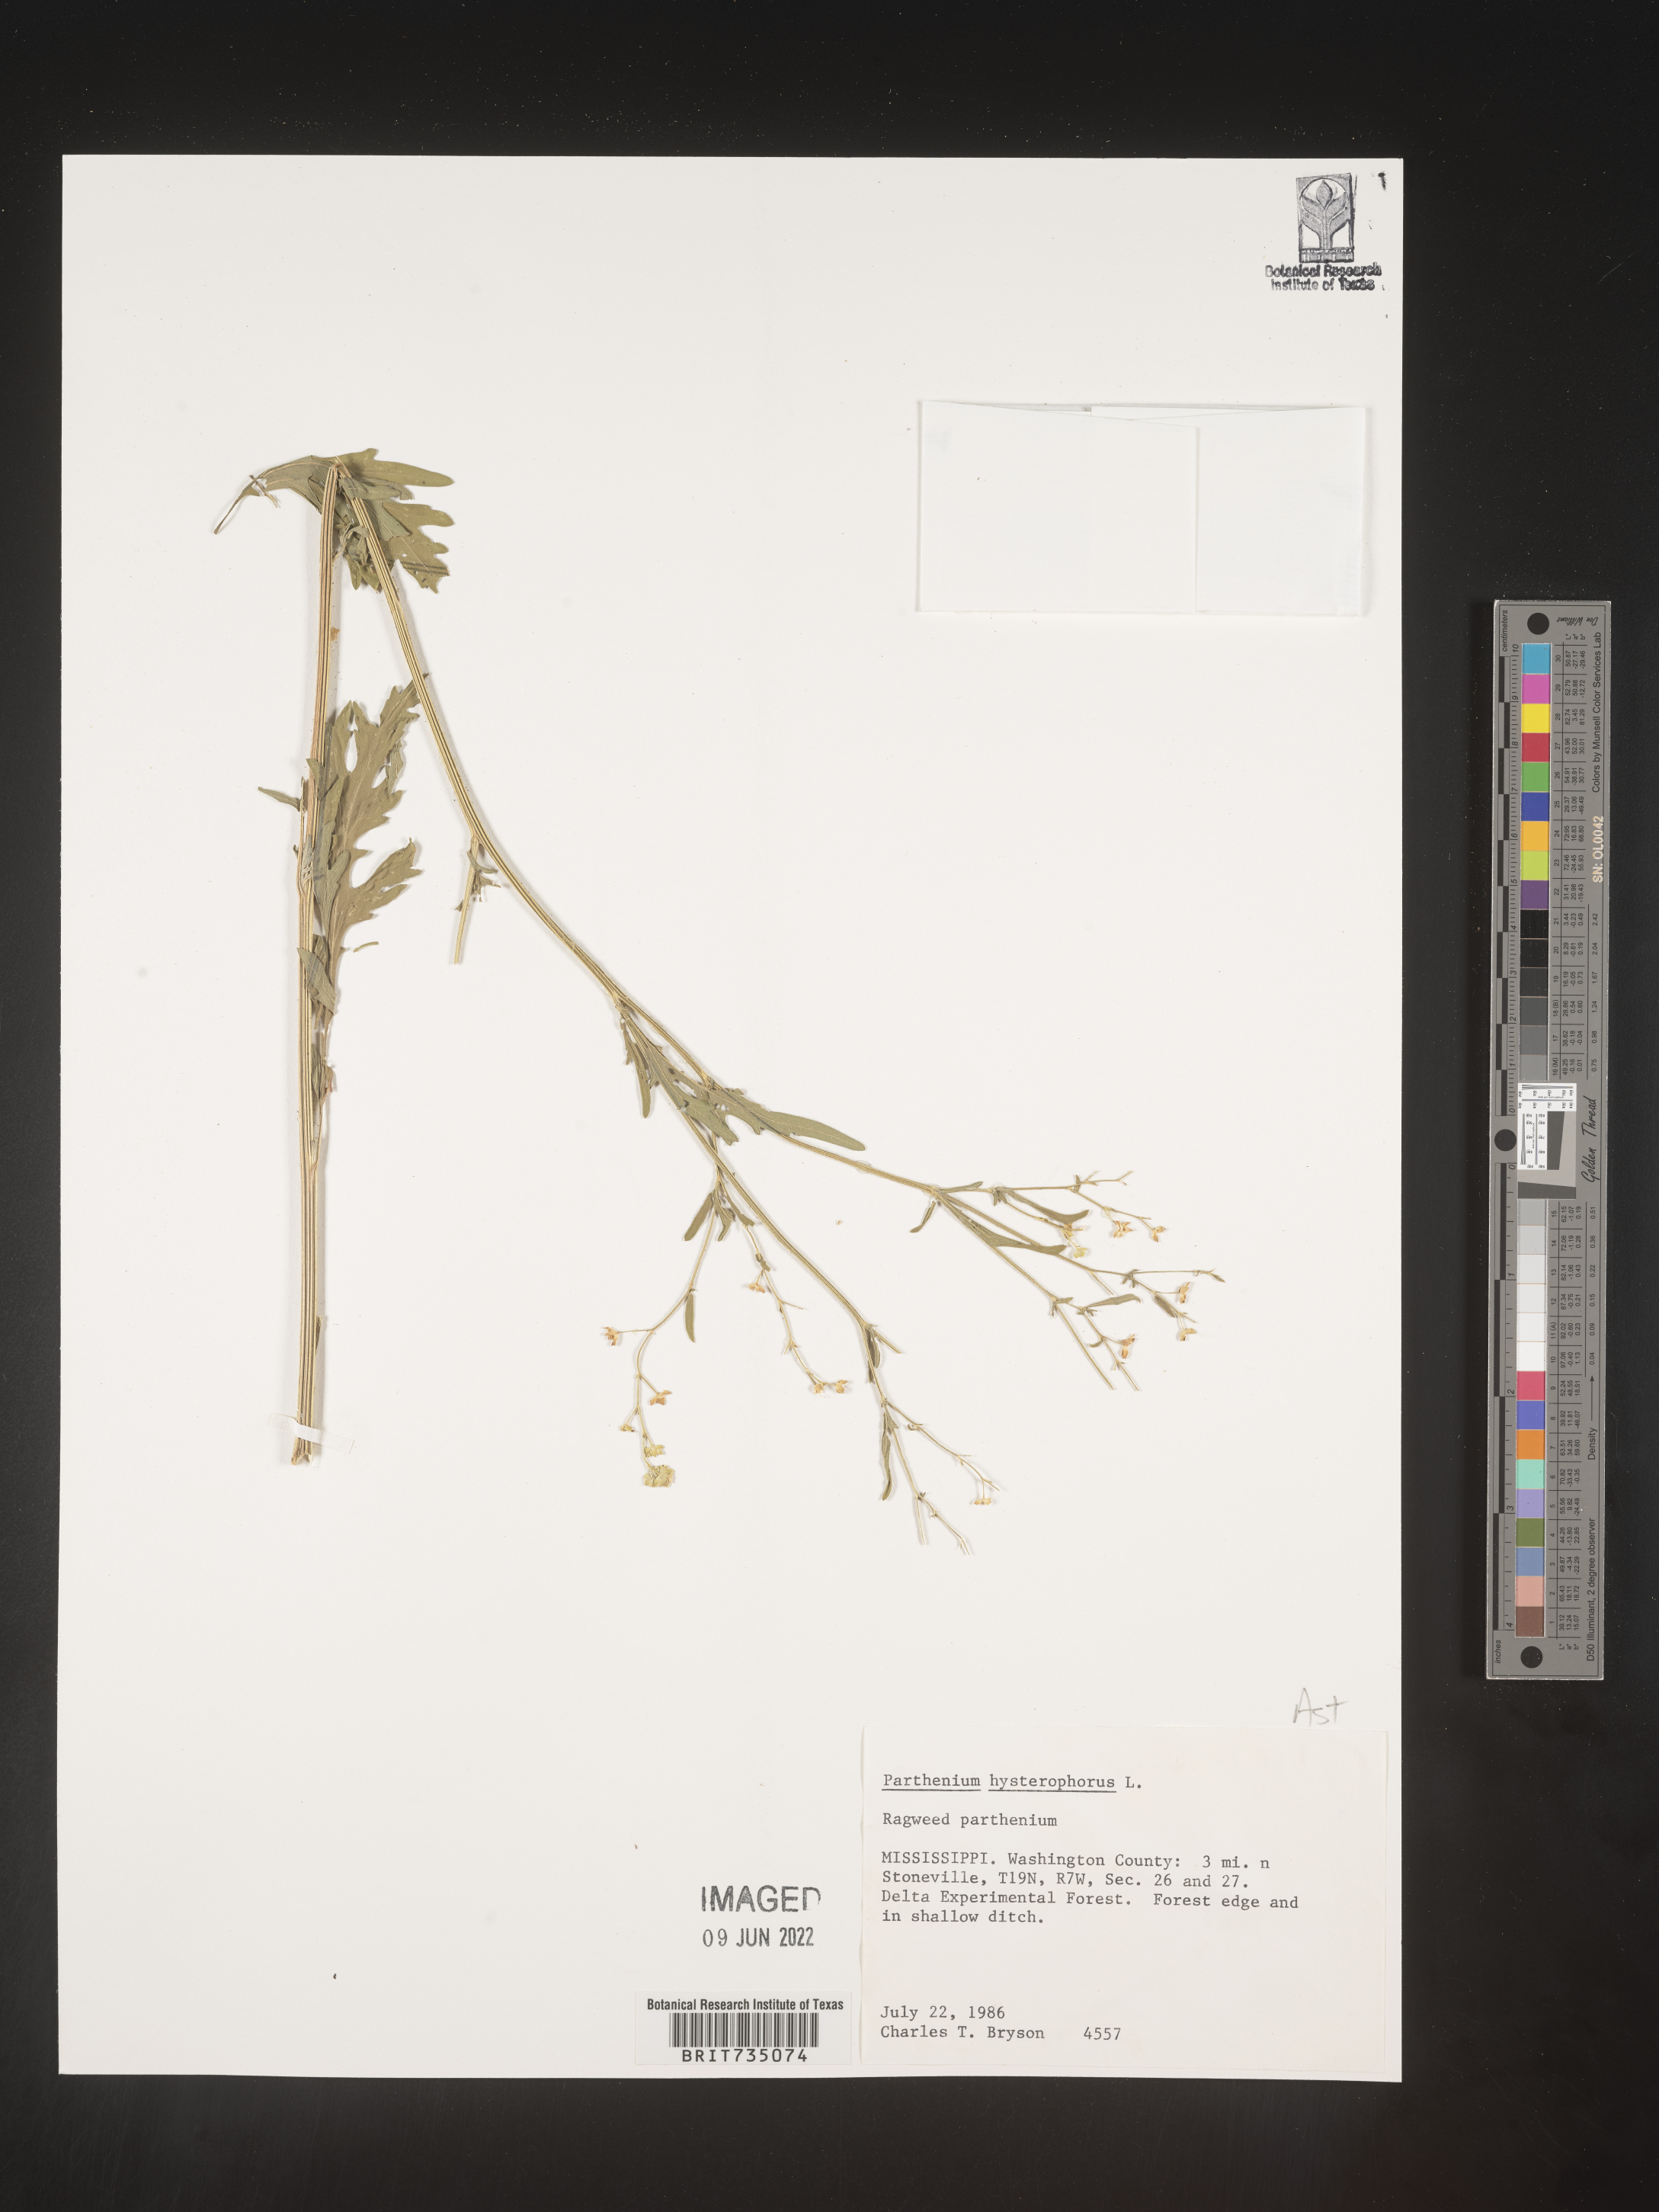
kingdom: Plantae
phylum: Tracheophyta
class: Magnoliopsida
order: Asterales
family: Asteraceae
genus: Parthenium
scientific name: Parthenium hysterophorus
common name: Santa maria feverfew
